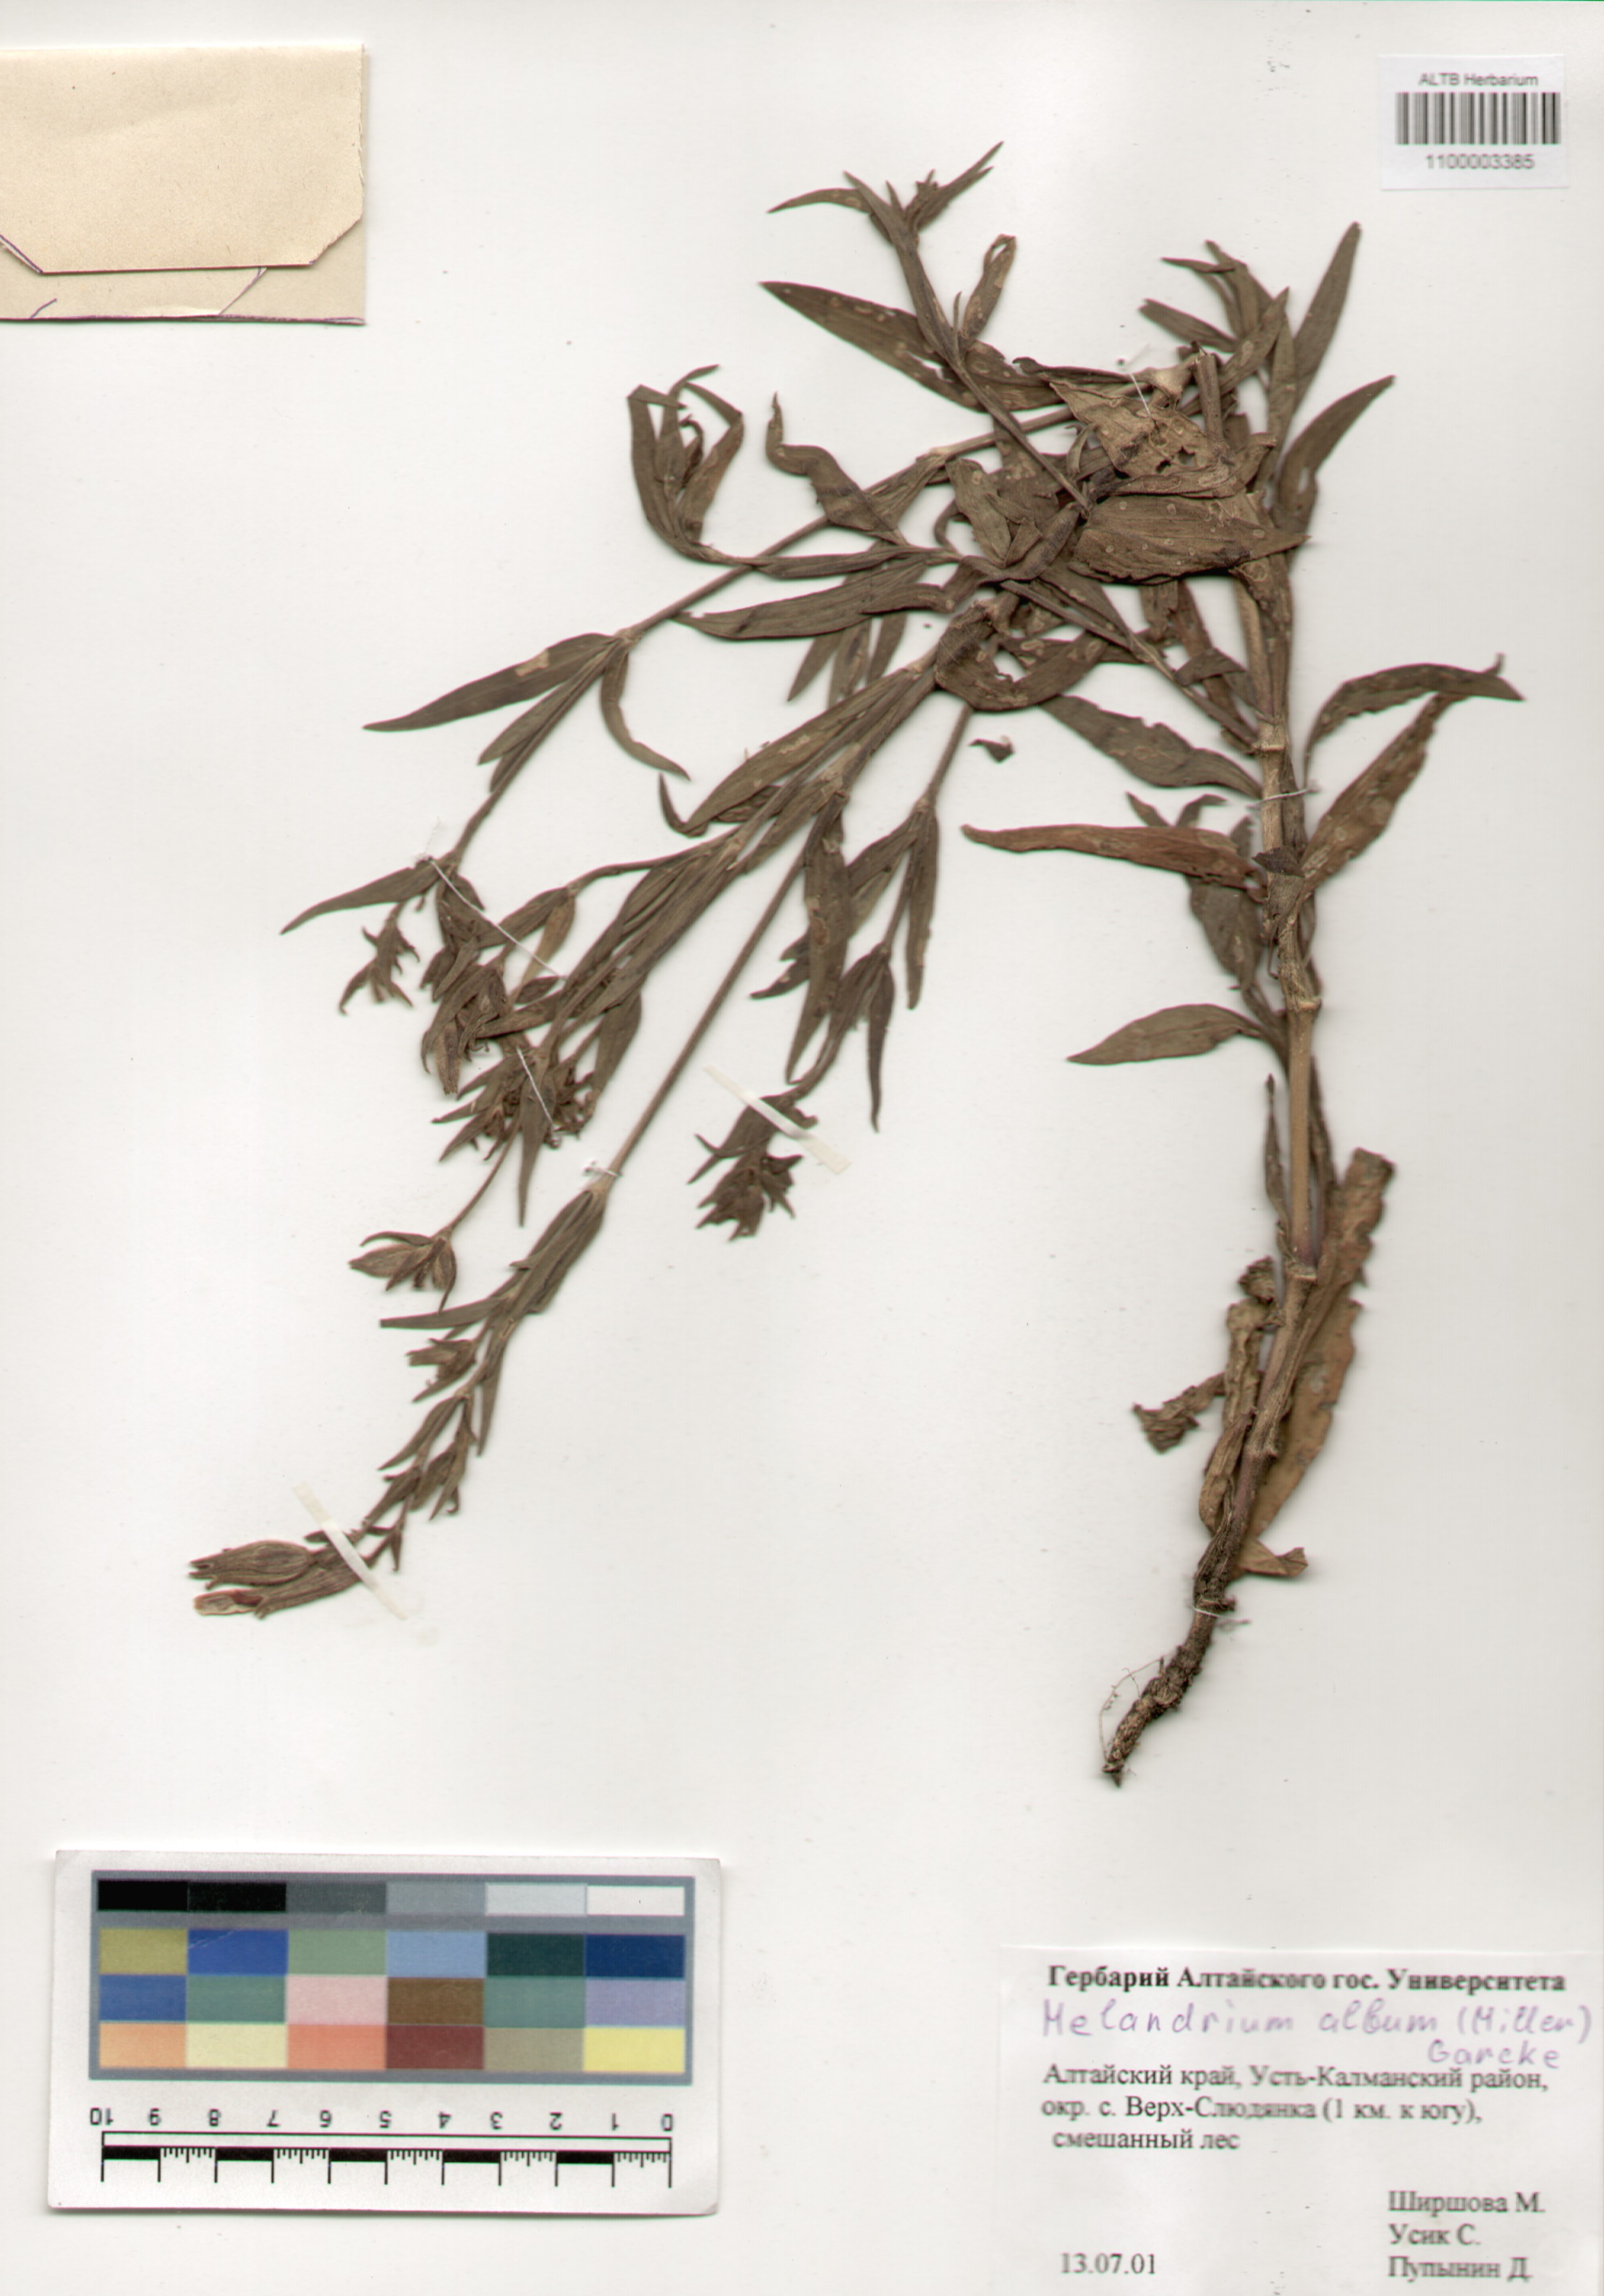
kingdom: Plantae
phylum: Tracheophyta
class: Magnoliopsida
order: Caryophyllales
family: Caryophyllaceae
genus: Silene
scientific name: Silene latifolia
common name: White campion
